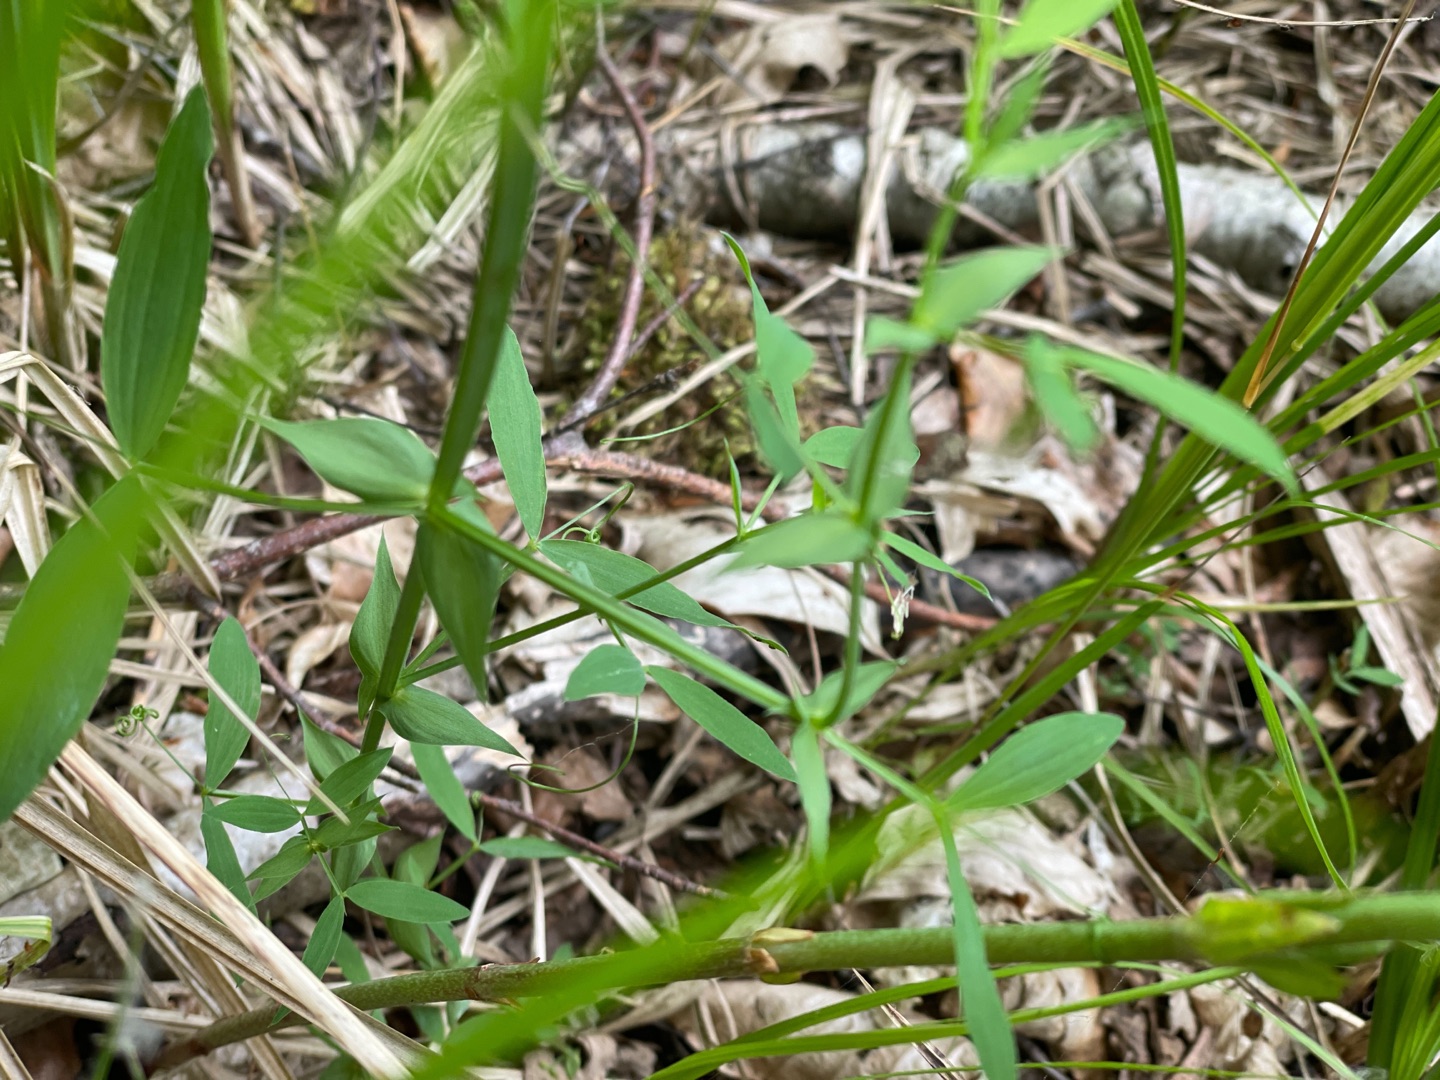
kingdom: Plantae
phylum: Tracheophyta
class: Magnoliopsida
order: Fabales
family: Fabaceae
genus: Lathyrus
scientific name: Lathyrus pratensis
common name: Gul fladbælg
